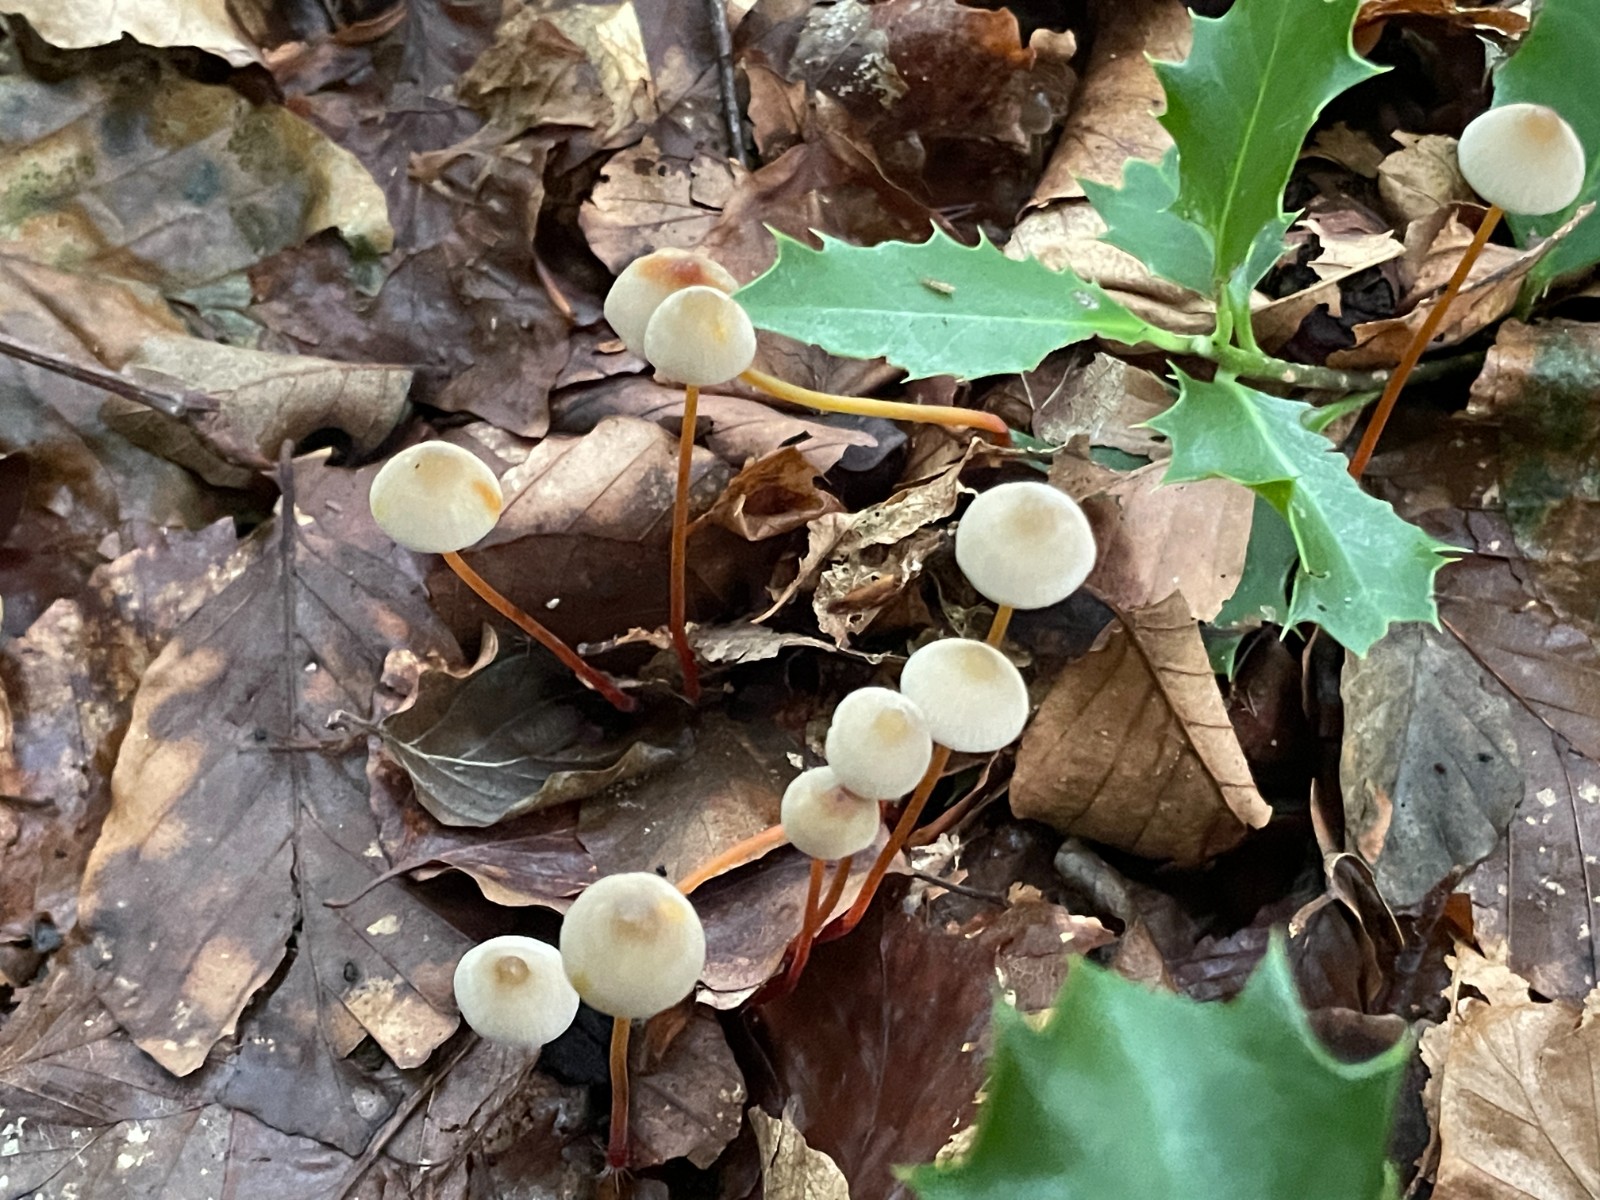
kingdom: Fungi
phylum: Basidiomycota
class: Agaricomycetes
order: Agaricales
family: Mycenaceae
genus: Mycena
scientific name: Mycena crocata
